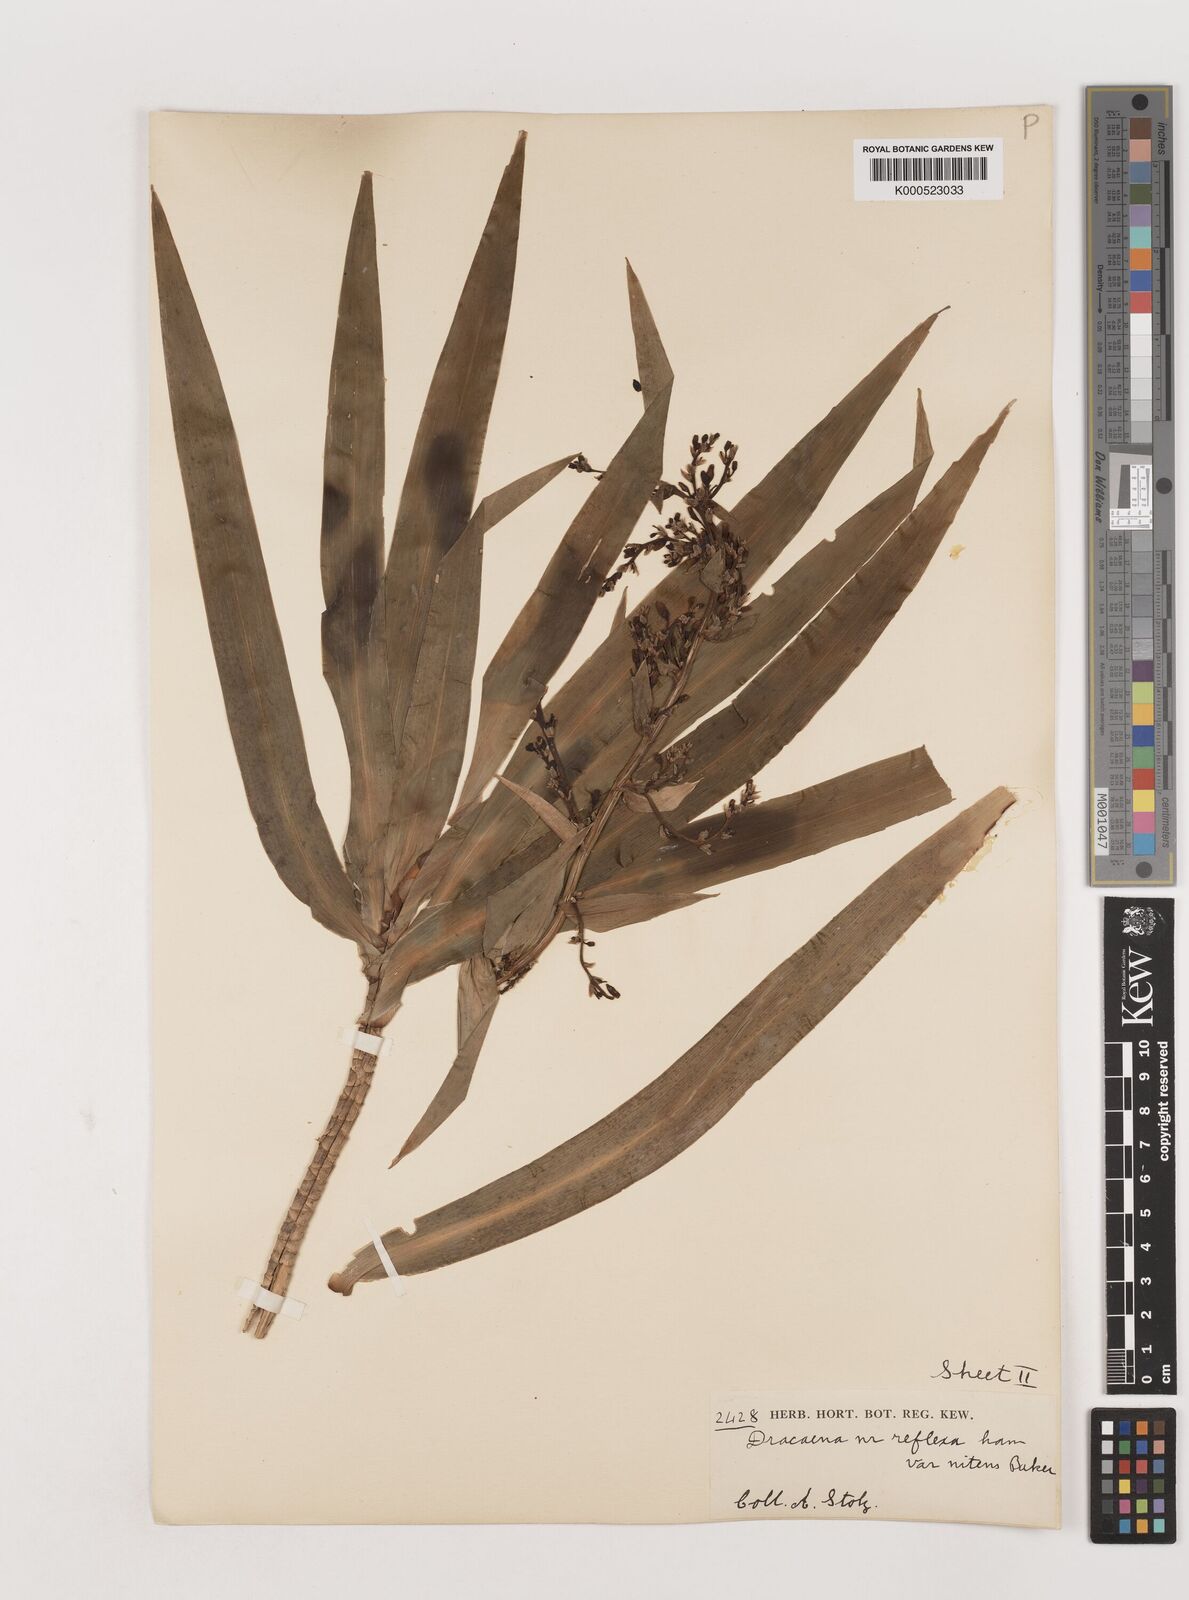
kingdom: Plantae
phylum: Tracheophyta
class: Liliopsida
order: Asparagales
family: Asparagaceae
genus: Dracaena
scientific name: Dracaena afromontana
